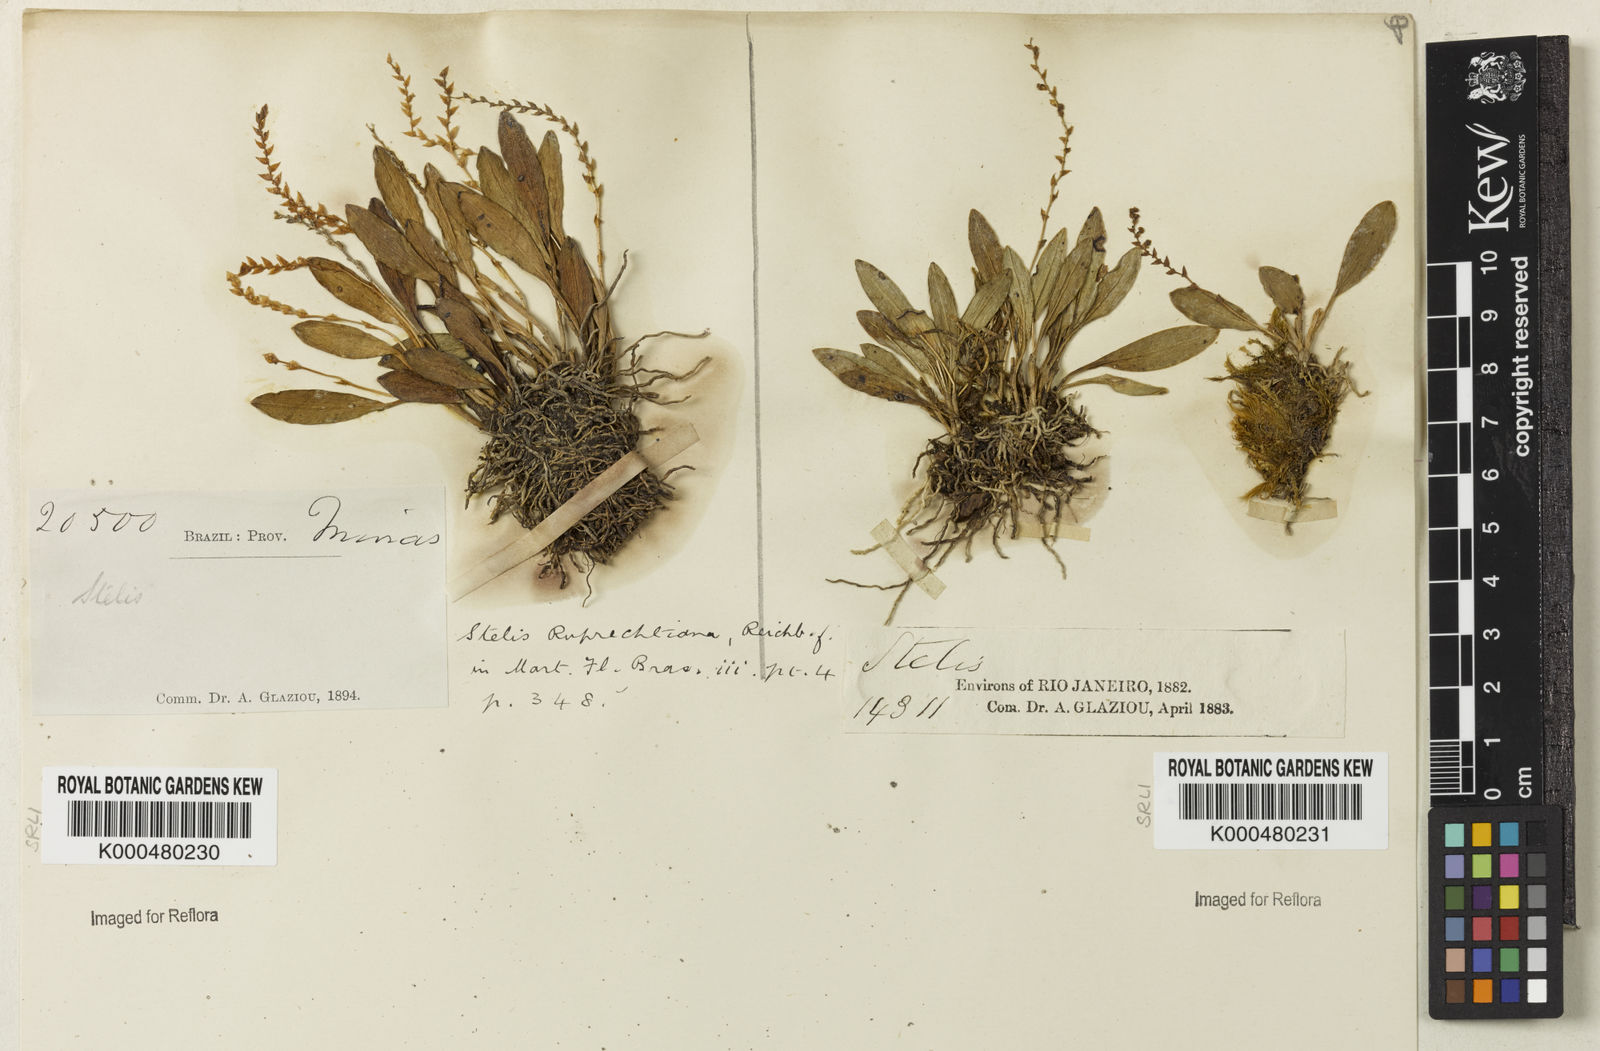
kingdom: Plantae
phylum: Tracheophyta
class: Liliopsida
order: Asparagales
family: Orchidaceae
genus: Stelis
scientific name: Stelis ruprechtiana
